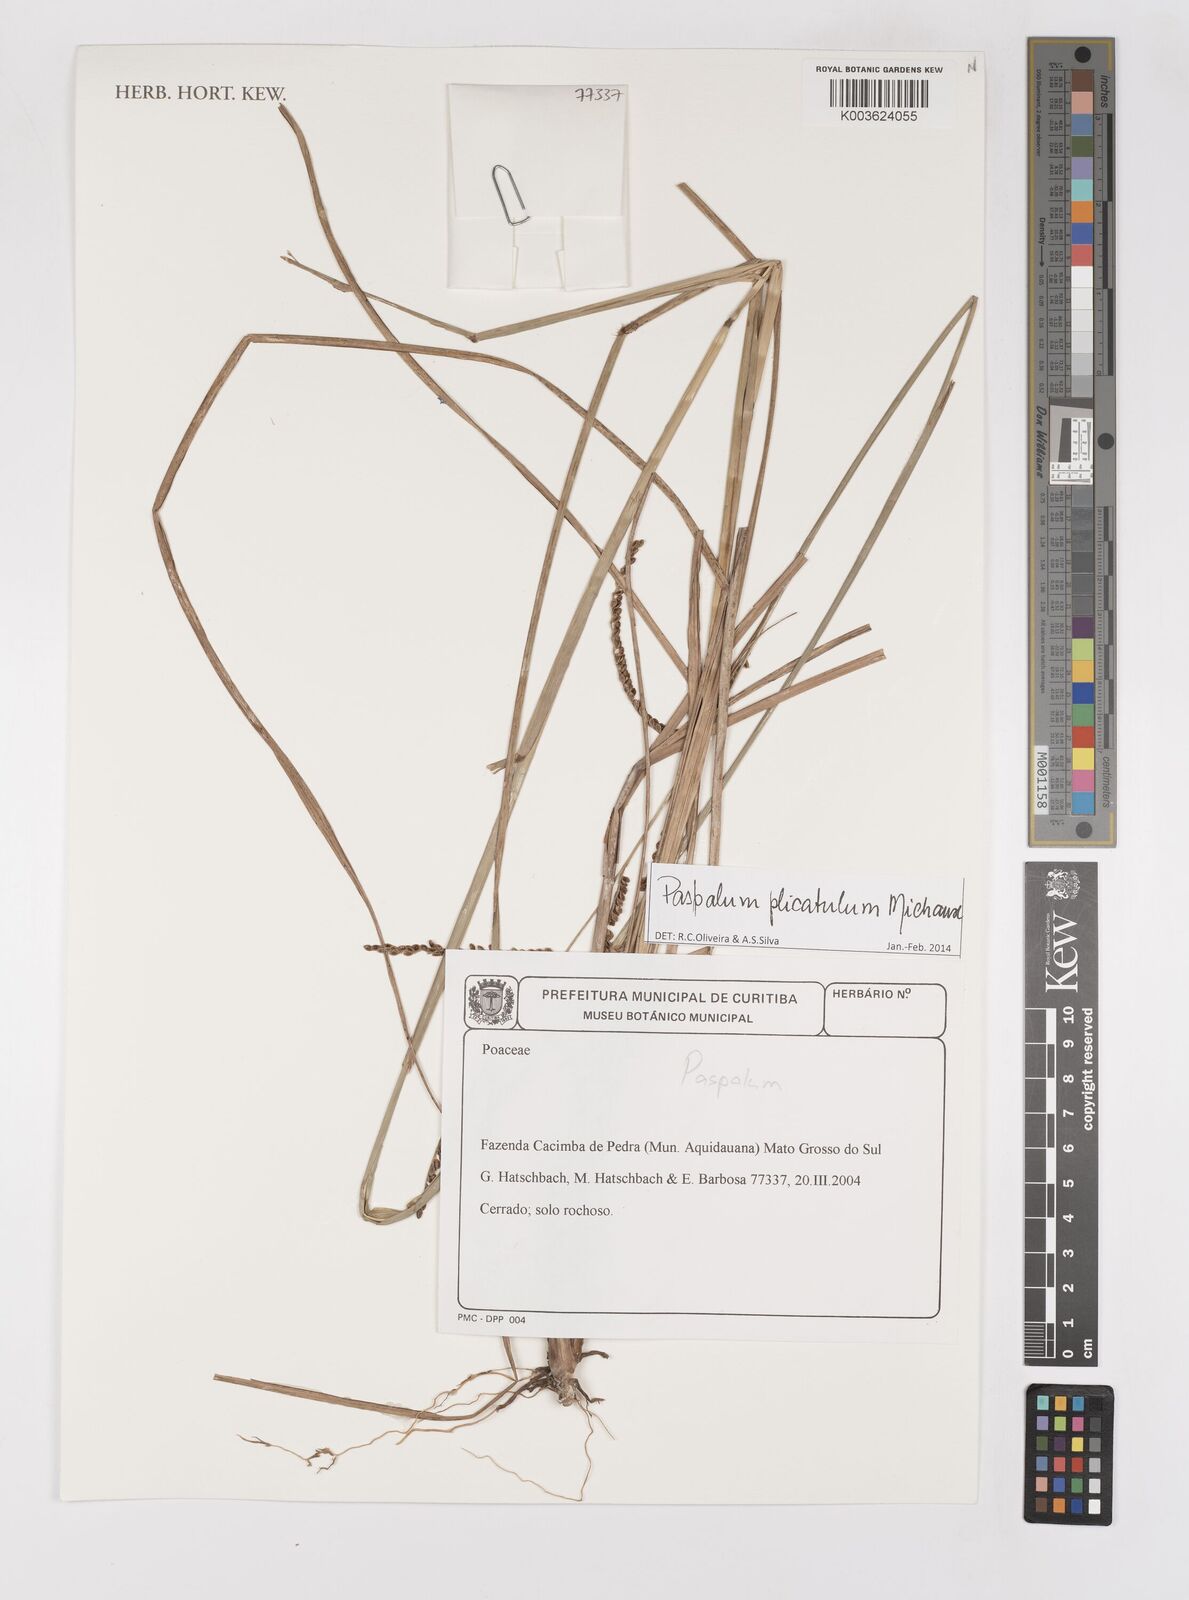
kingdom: Plantae
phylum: Tracheophyta
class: Liliopsida
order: Poales
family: Poaceae
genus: Paspalum
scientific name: Paspalum plicatulum
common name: Top paspalum
